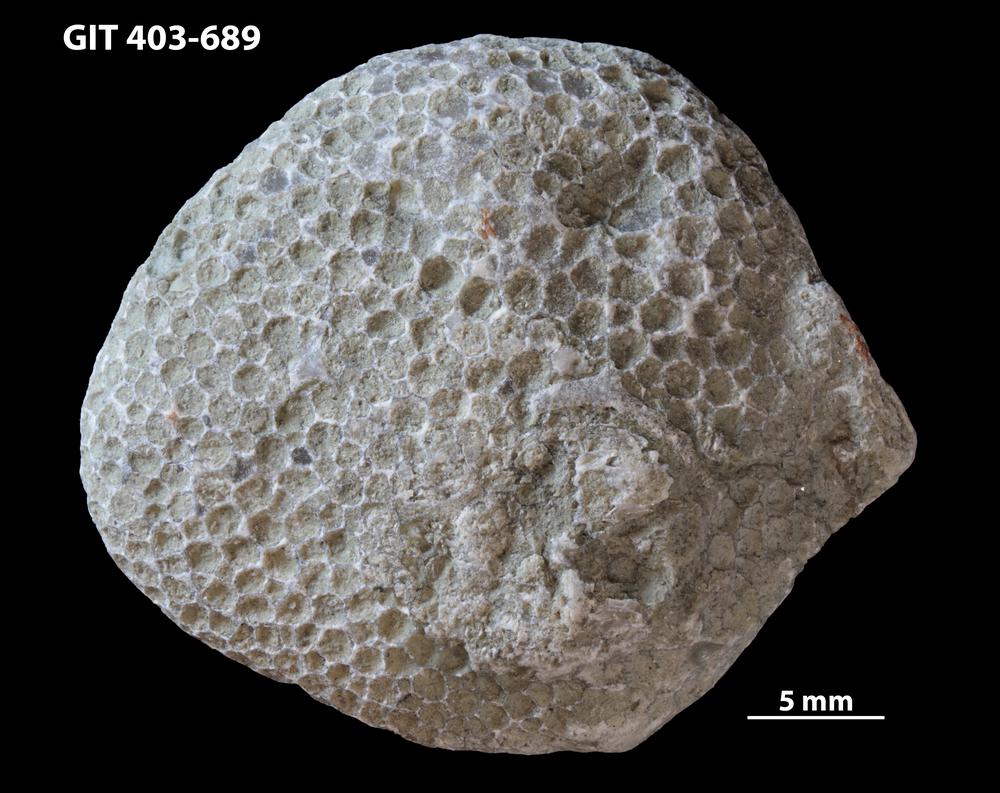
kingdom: Animalia
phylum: Cnidaria
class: Anthozoa
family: Favositidae
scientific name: Favositidae
